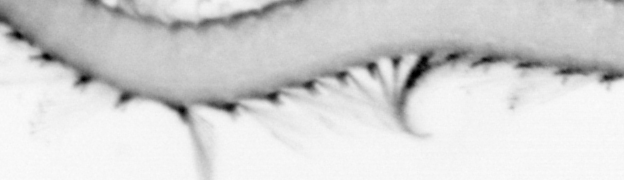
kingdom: Animalia
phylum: Annelida
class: Polychaeta
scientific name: Polychaeta
